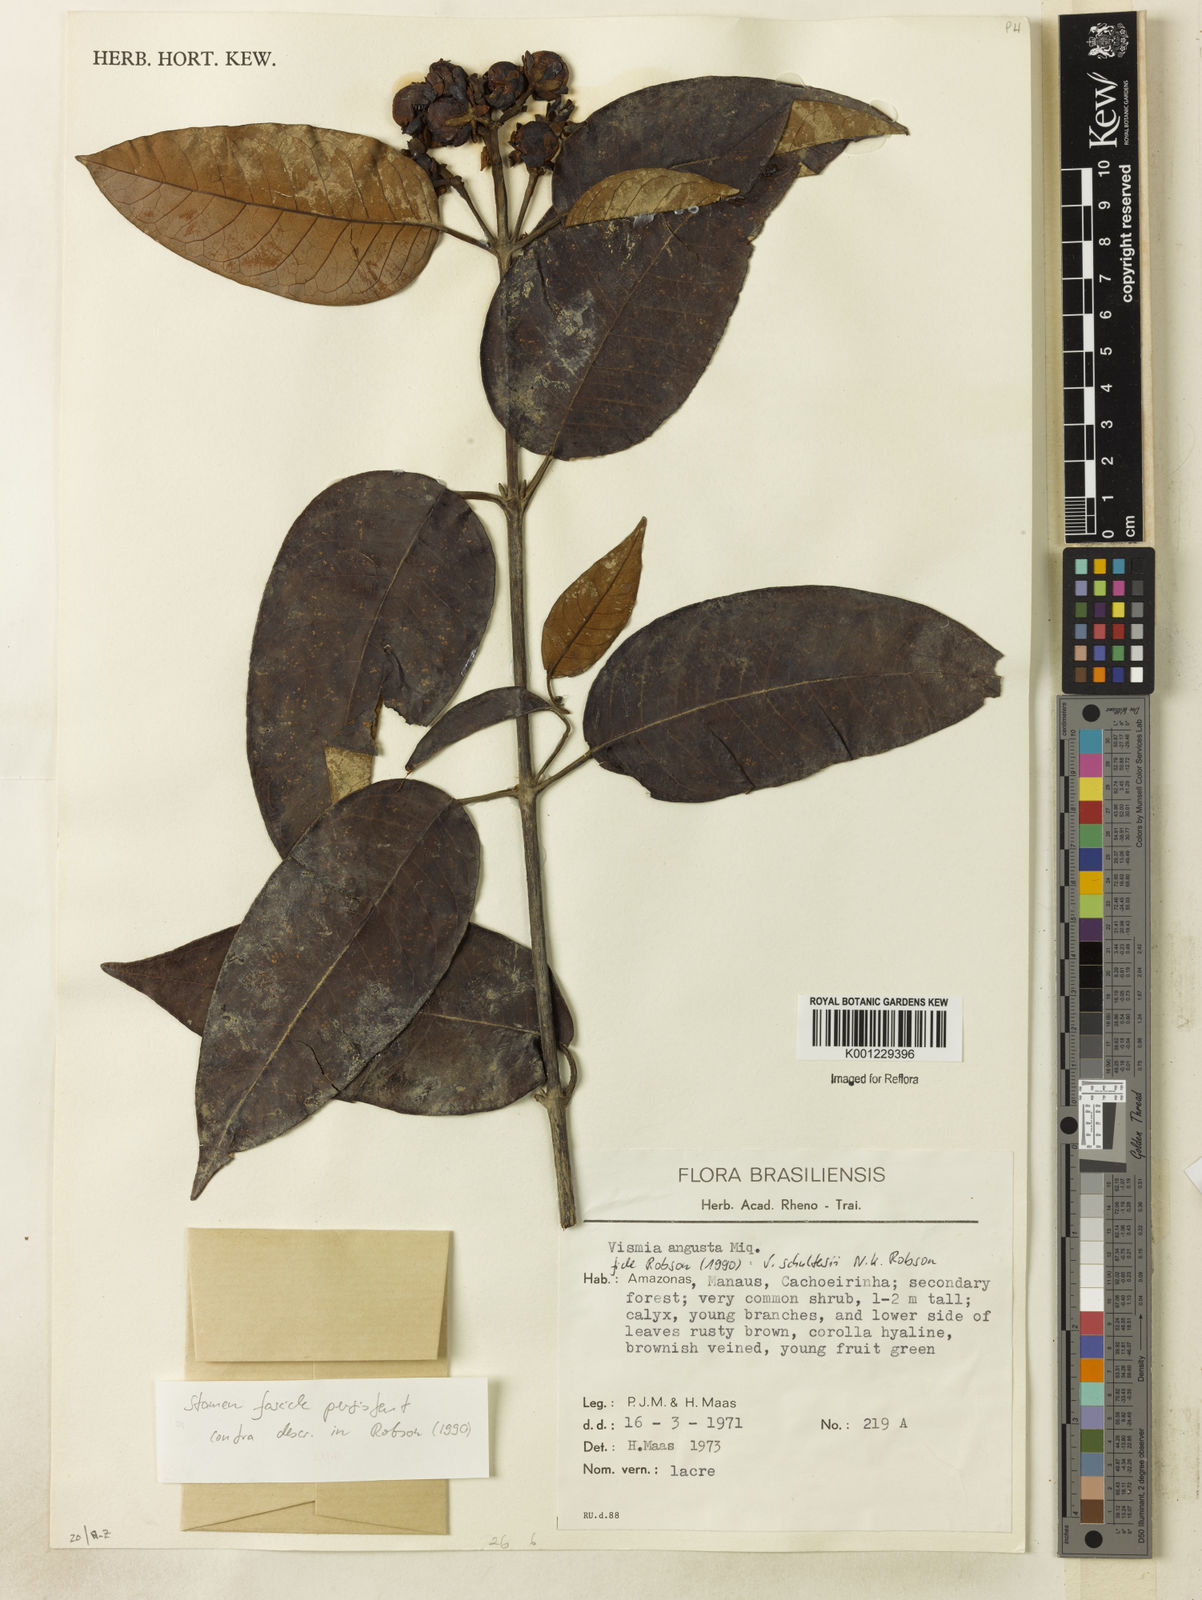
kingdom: Plantae
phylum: Tracheophyta
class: Magnoliopsida
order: Malpighiales
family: Hypericaceae
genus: Vismia
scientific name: Vismia ferruginea
